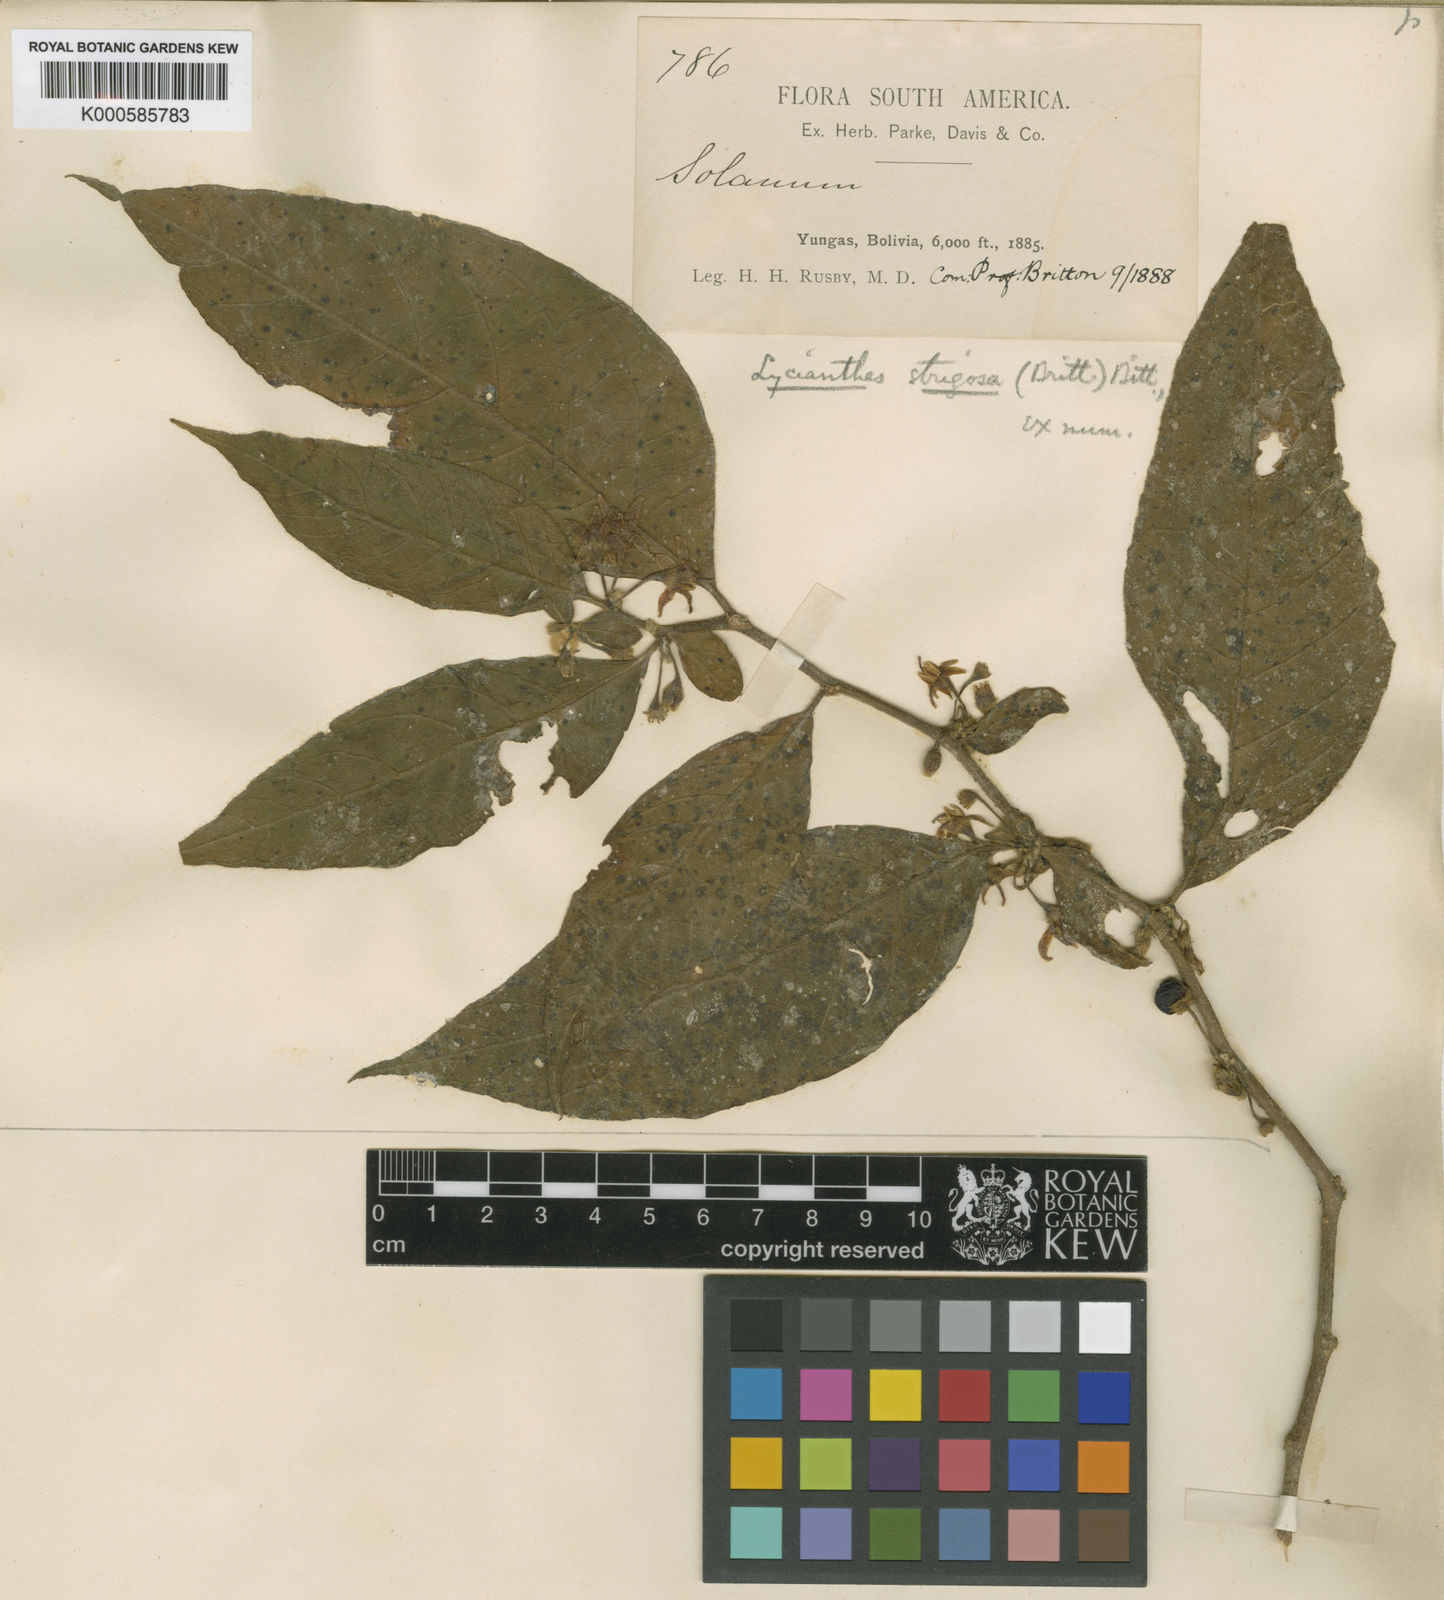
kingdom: Plantae
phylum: Tracheophyta
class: Magnoliopsida
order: Solanales
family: Solanaceae
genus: Lycianthes
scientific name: Lycianthes radiata
